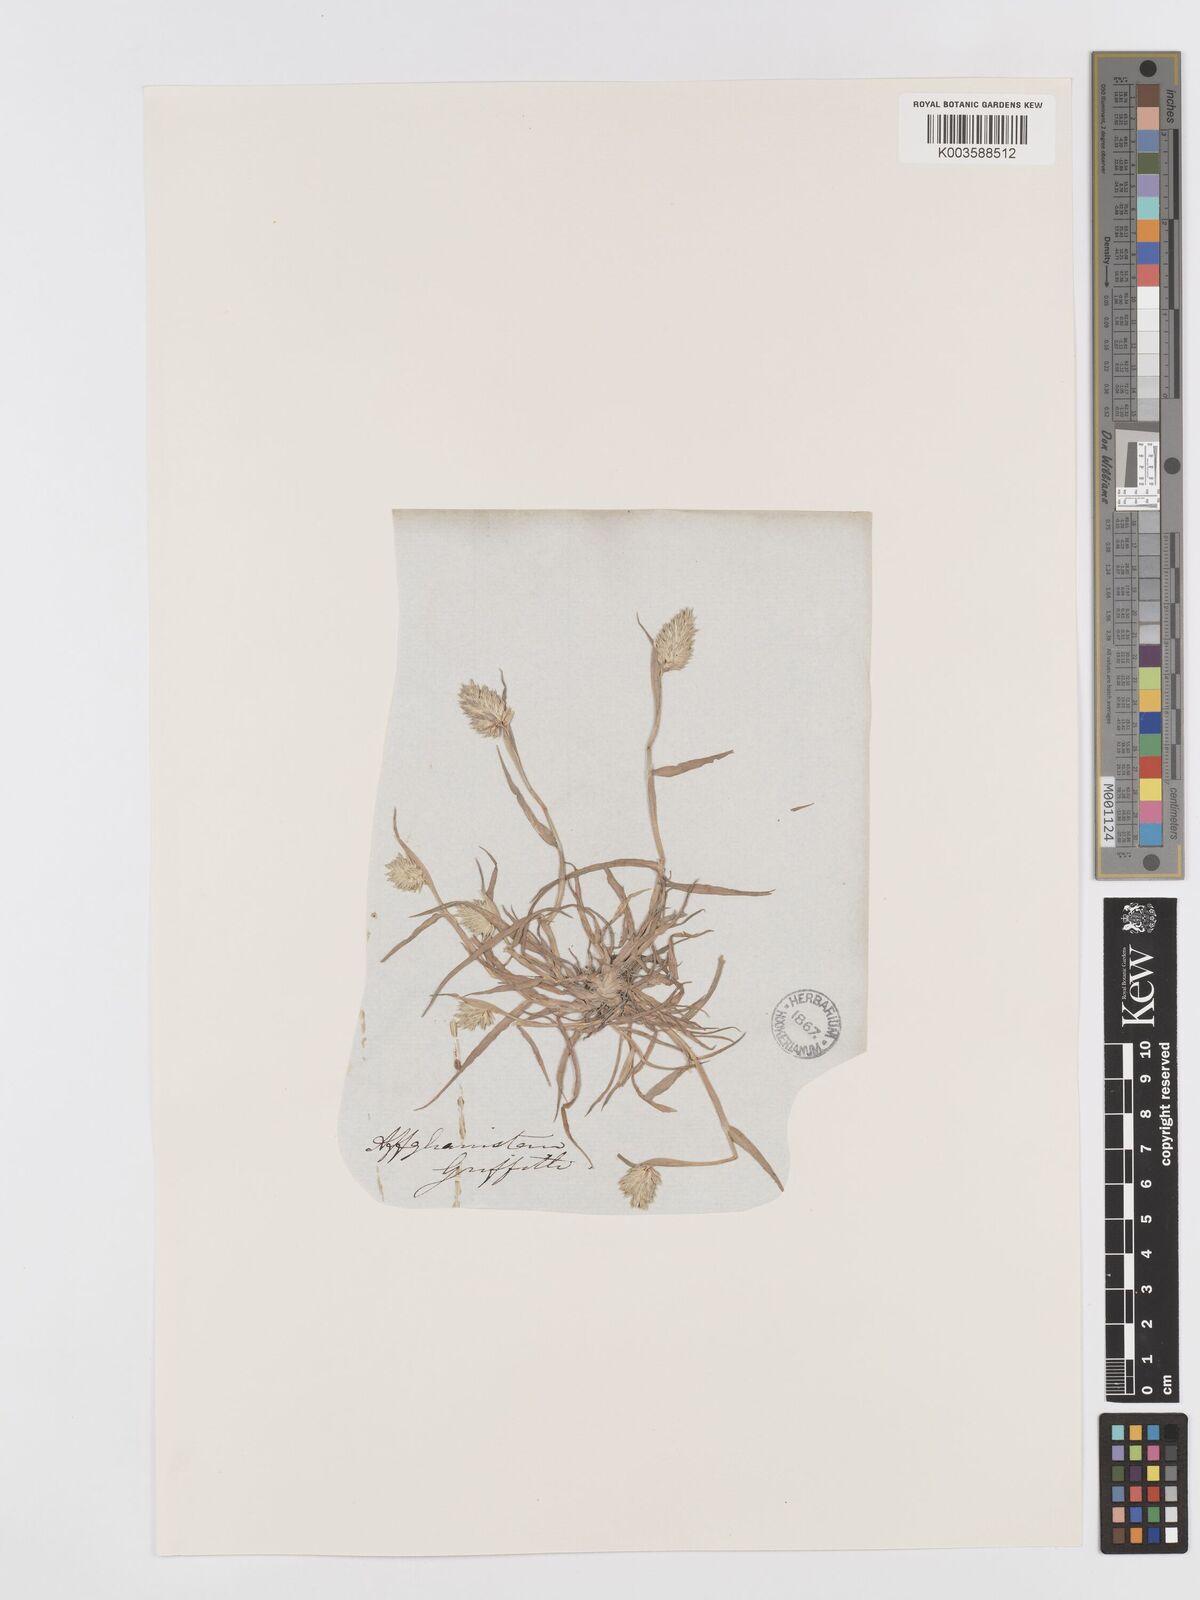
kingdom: Plantae
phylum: Tracheophyta
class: Liliopsida
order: Poales
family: Poaceae
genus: Phalaris
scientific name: Phalaris minor
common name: Littleseed canarygrass
